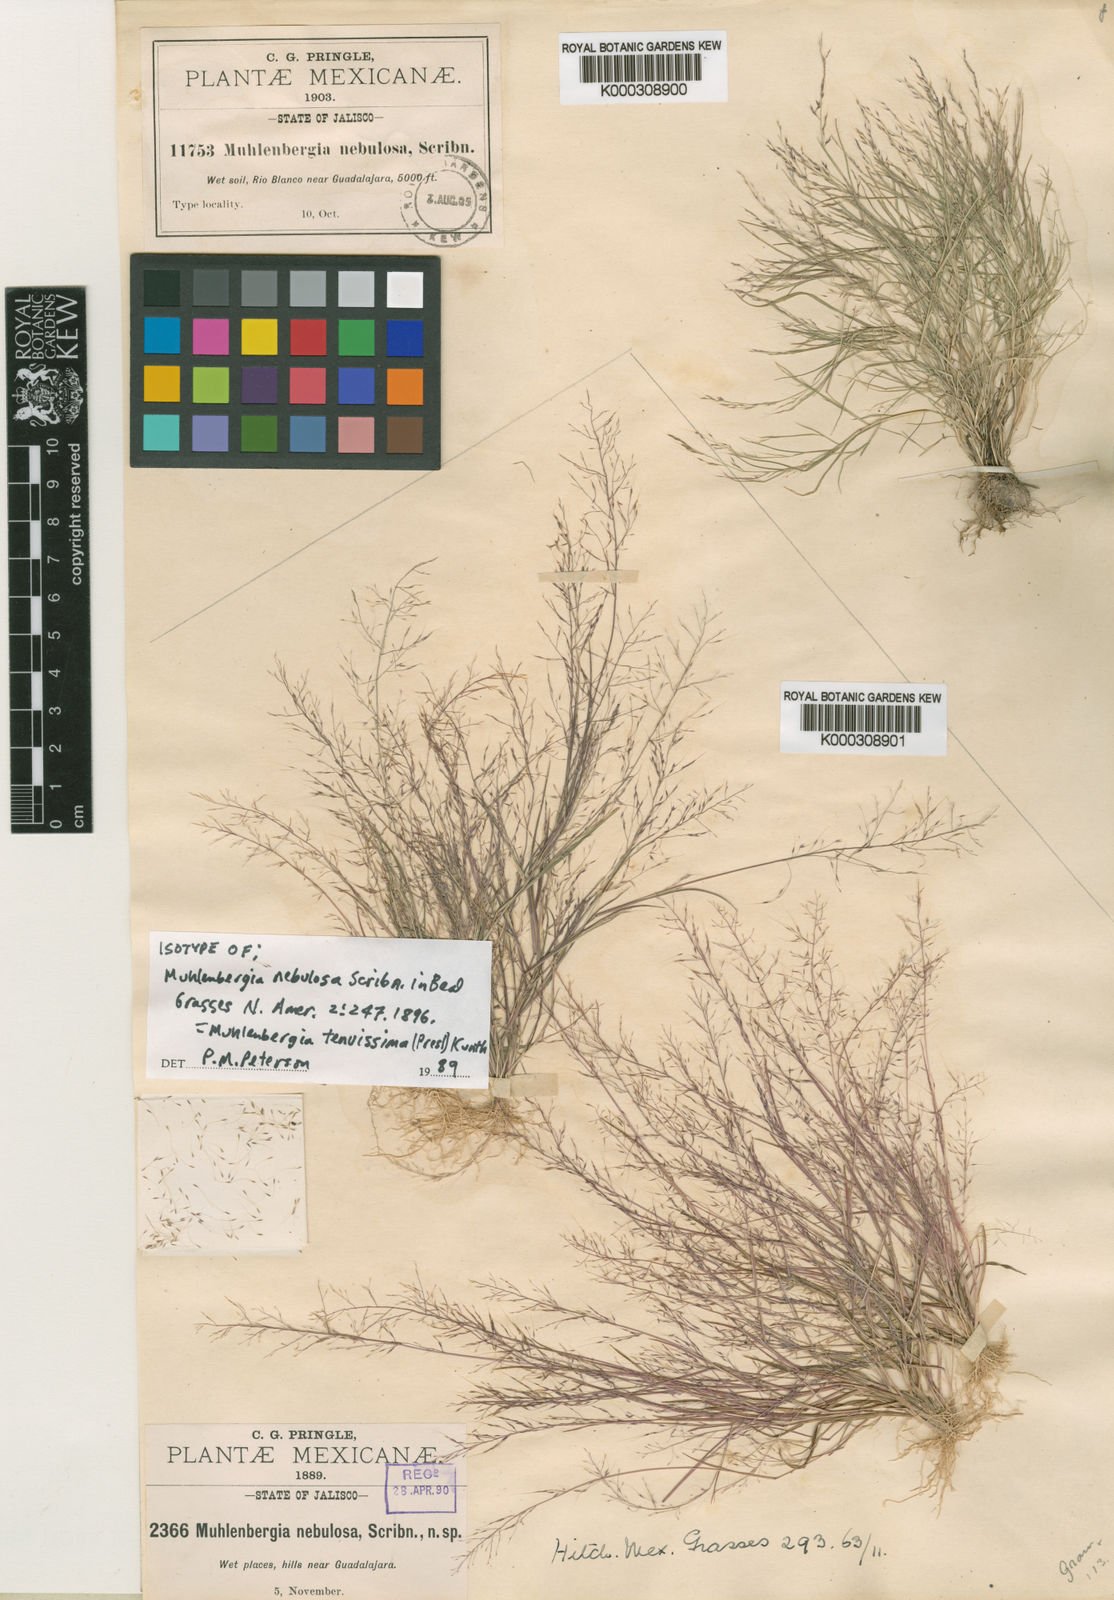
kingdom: Plantae
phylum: Tracheophyta
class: Liliopsida
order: Poales
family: Poaceae
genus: Muhlenbergia
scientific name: Muhlenbergia tenuissima
